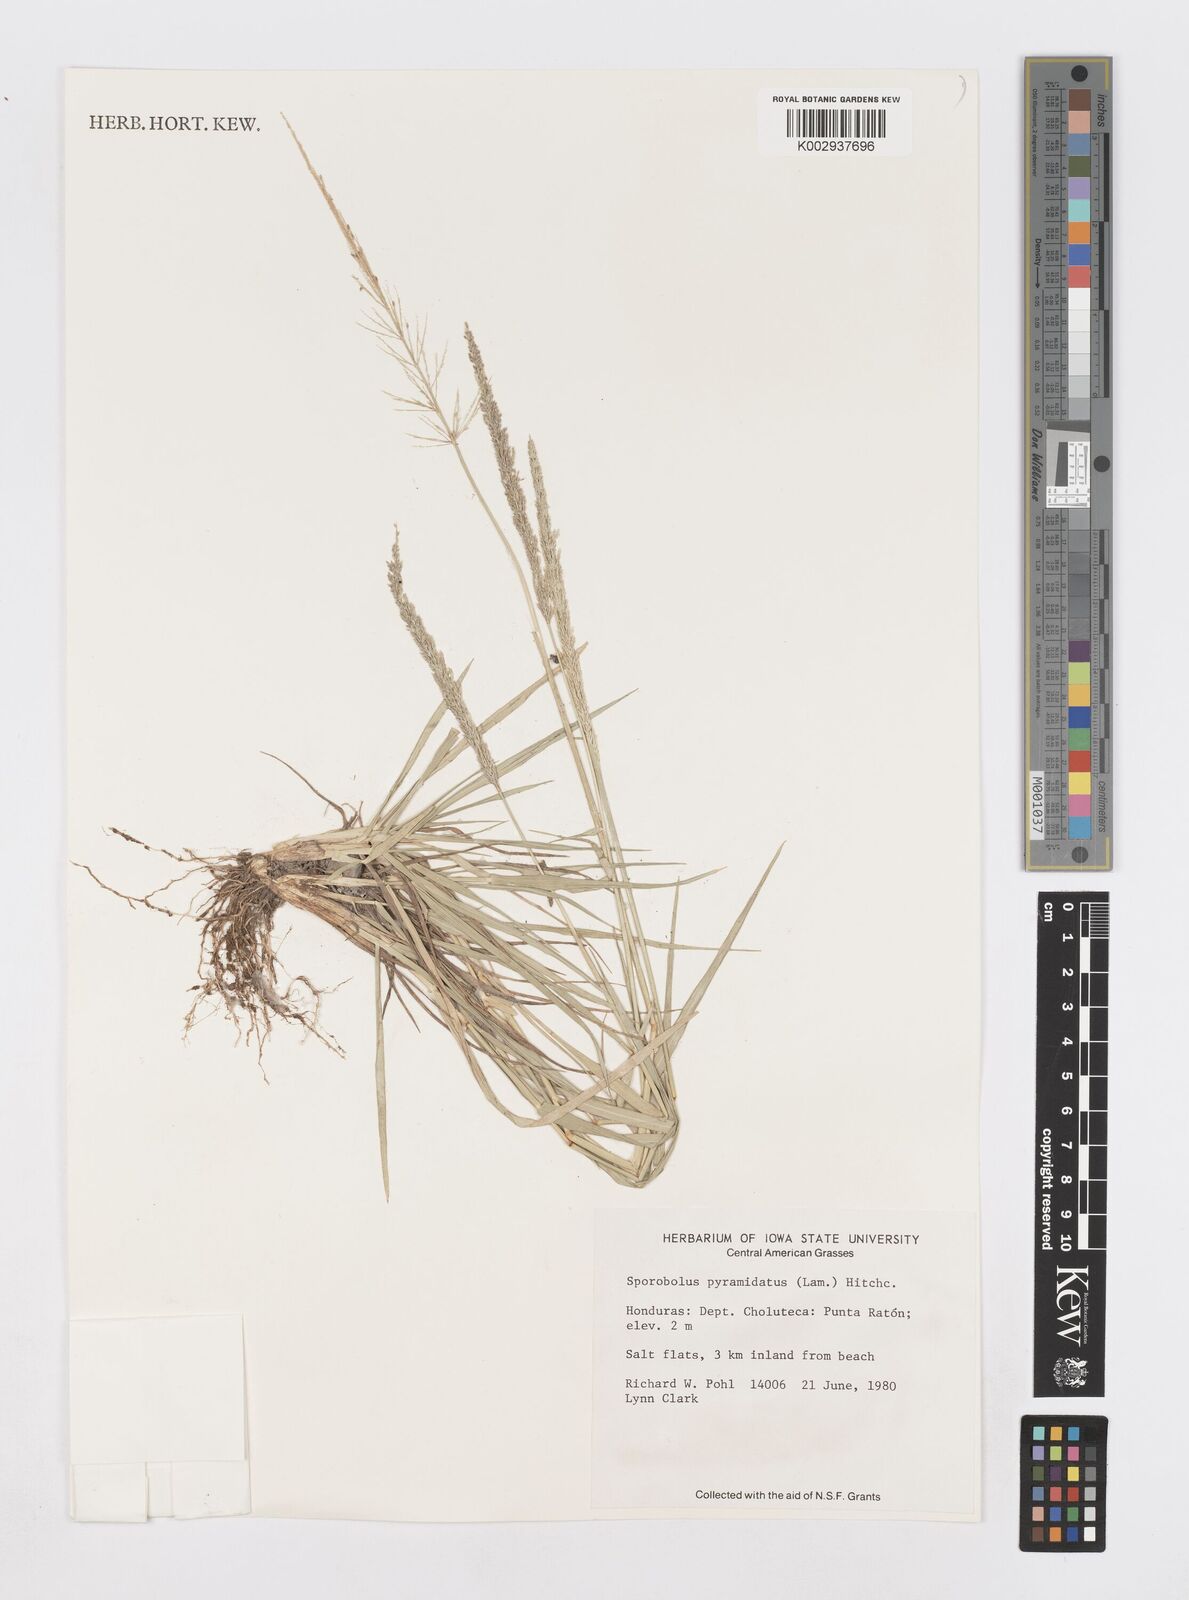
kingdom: Plantae
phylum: Tracheophyta
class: Liliopsida
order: Poales
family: Poaceae
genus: Sporobolus
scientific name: Sporobolus pyramidatus
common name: Whorled dropseed
